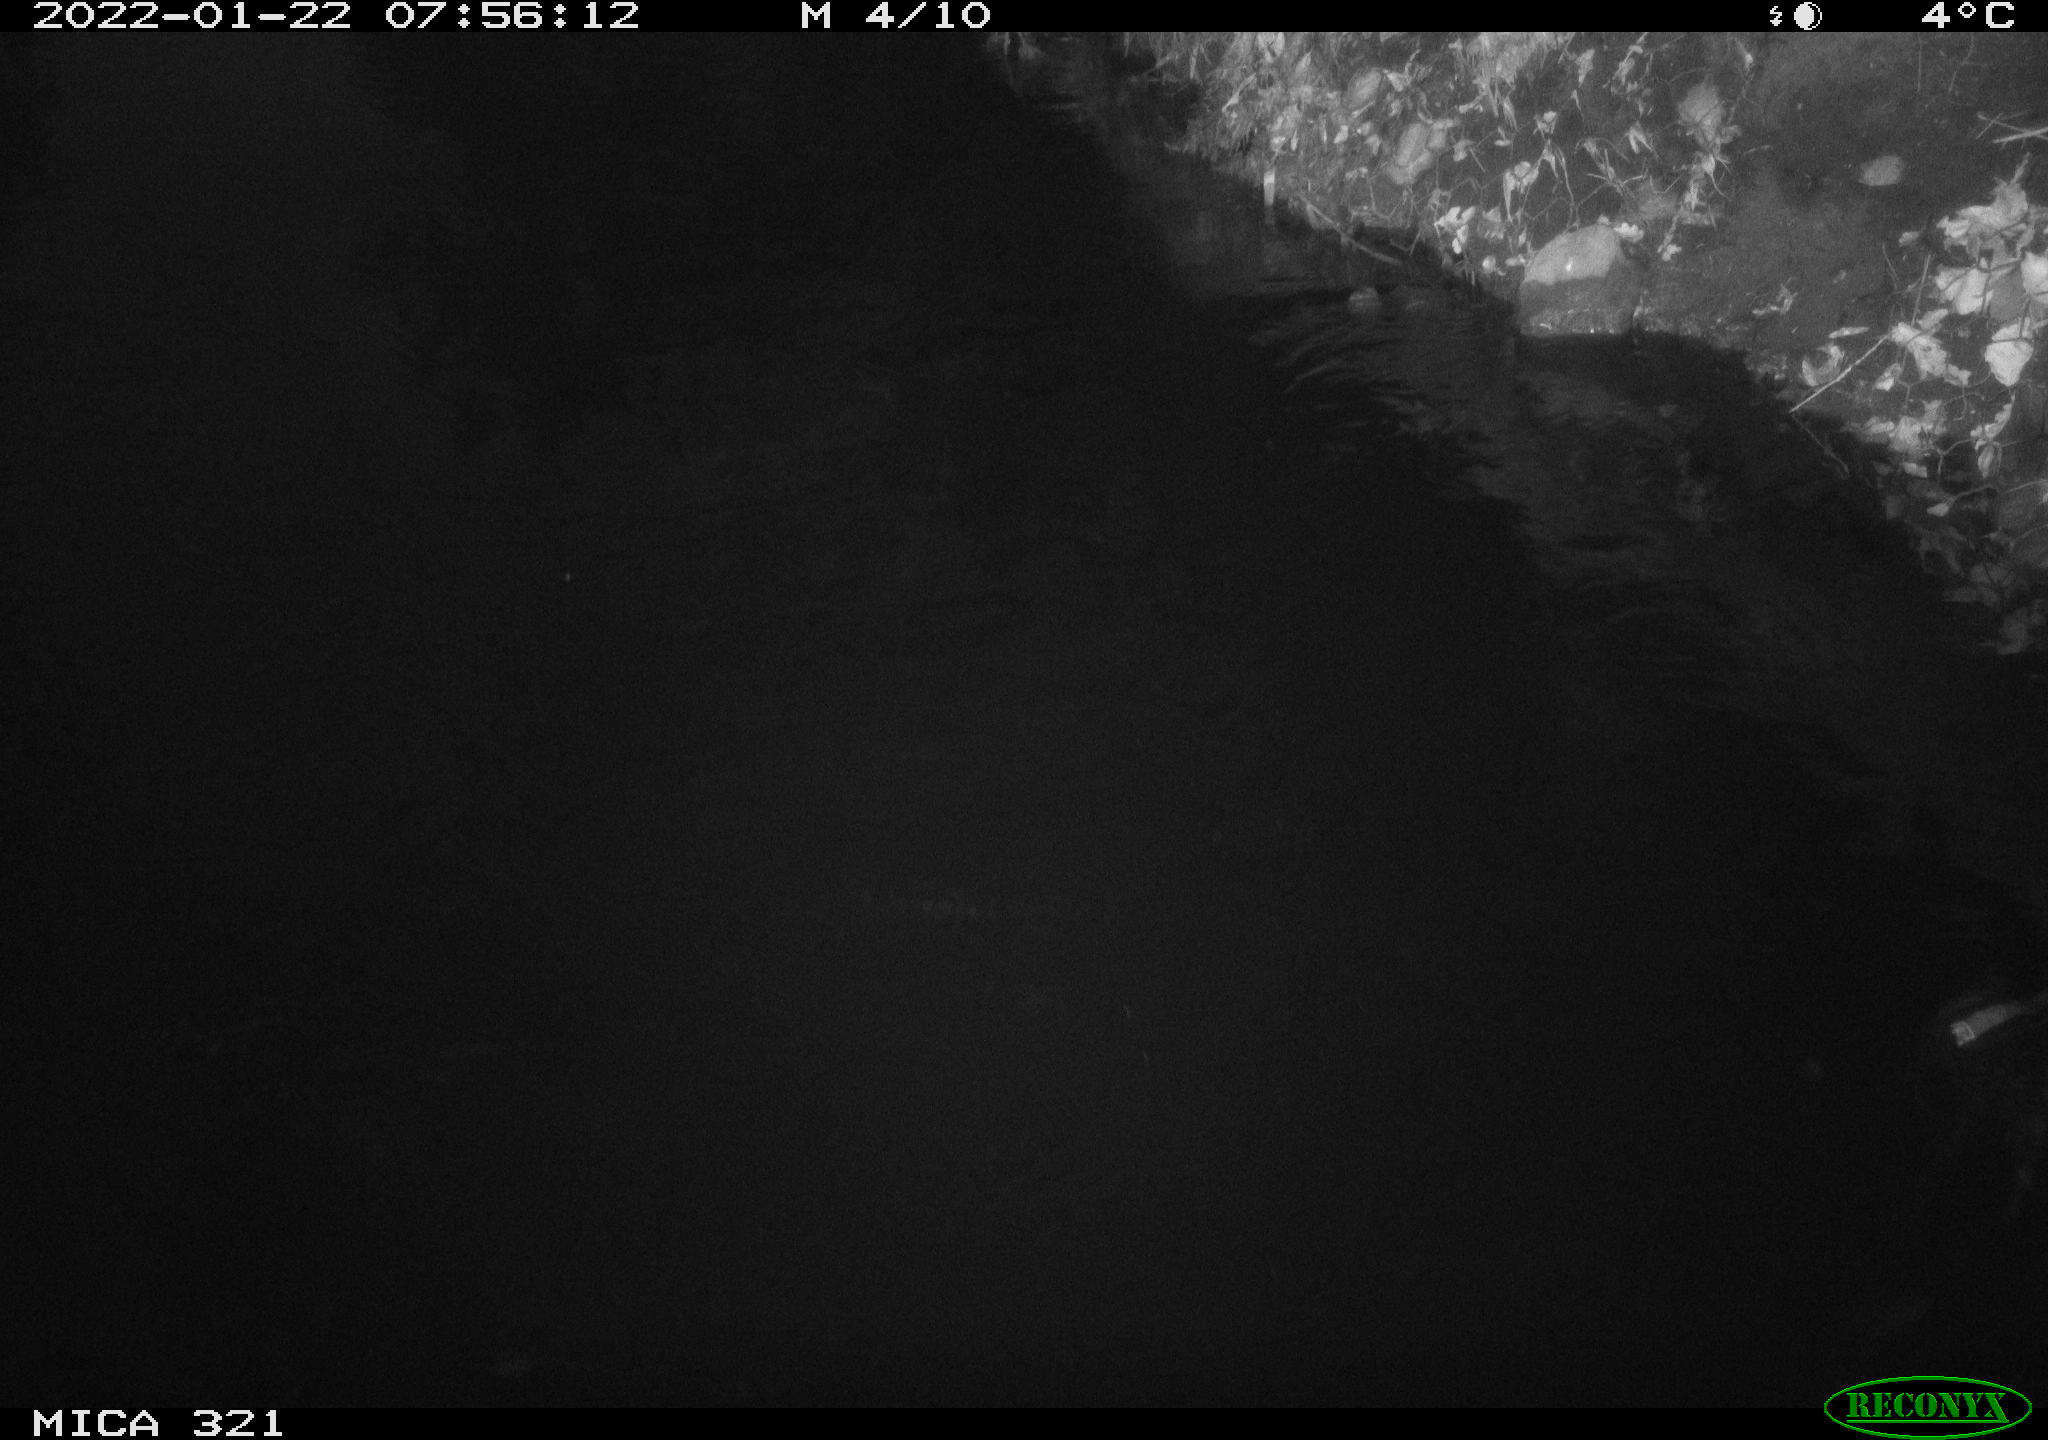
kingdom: Animalia
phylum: Chordata
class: Aves
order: Anseriformes
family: Anatidae
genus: Anas
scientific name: Anas
